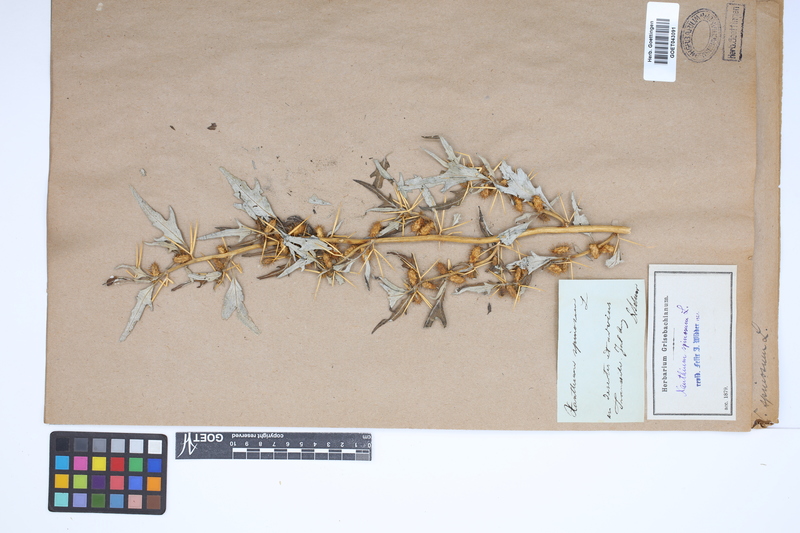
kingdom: Plantae
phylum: Tracheophyta
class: Magnoliopsida
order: Asterales
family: Asteraceae
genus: Xanthium
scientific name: Xanthium spinosum
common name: Spiny cocklebur
